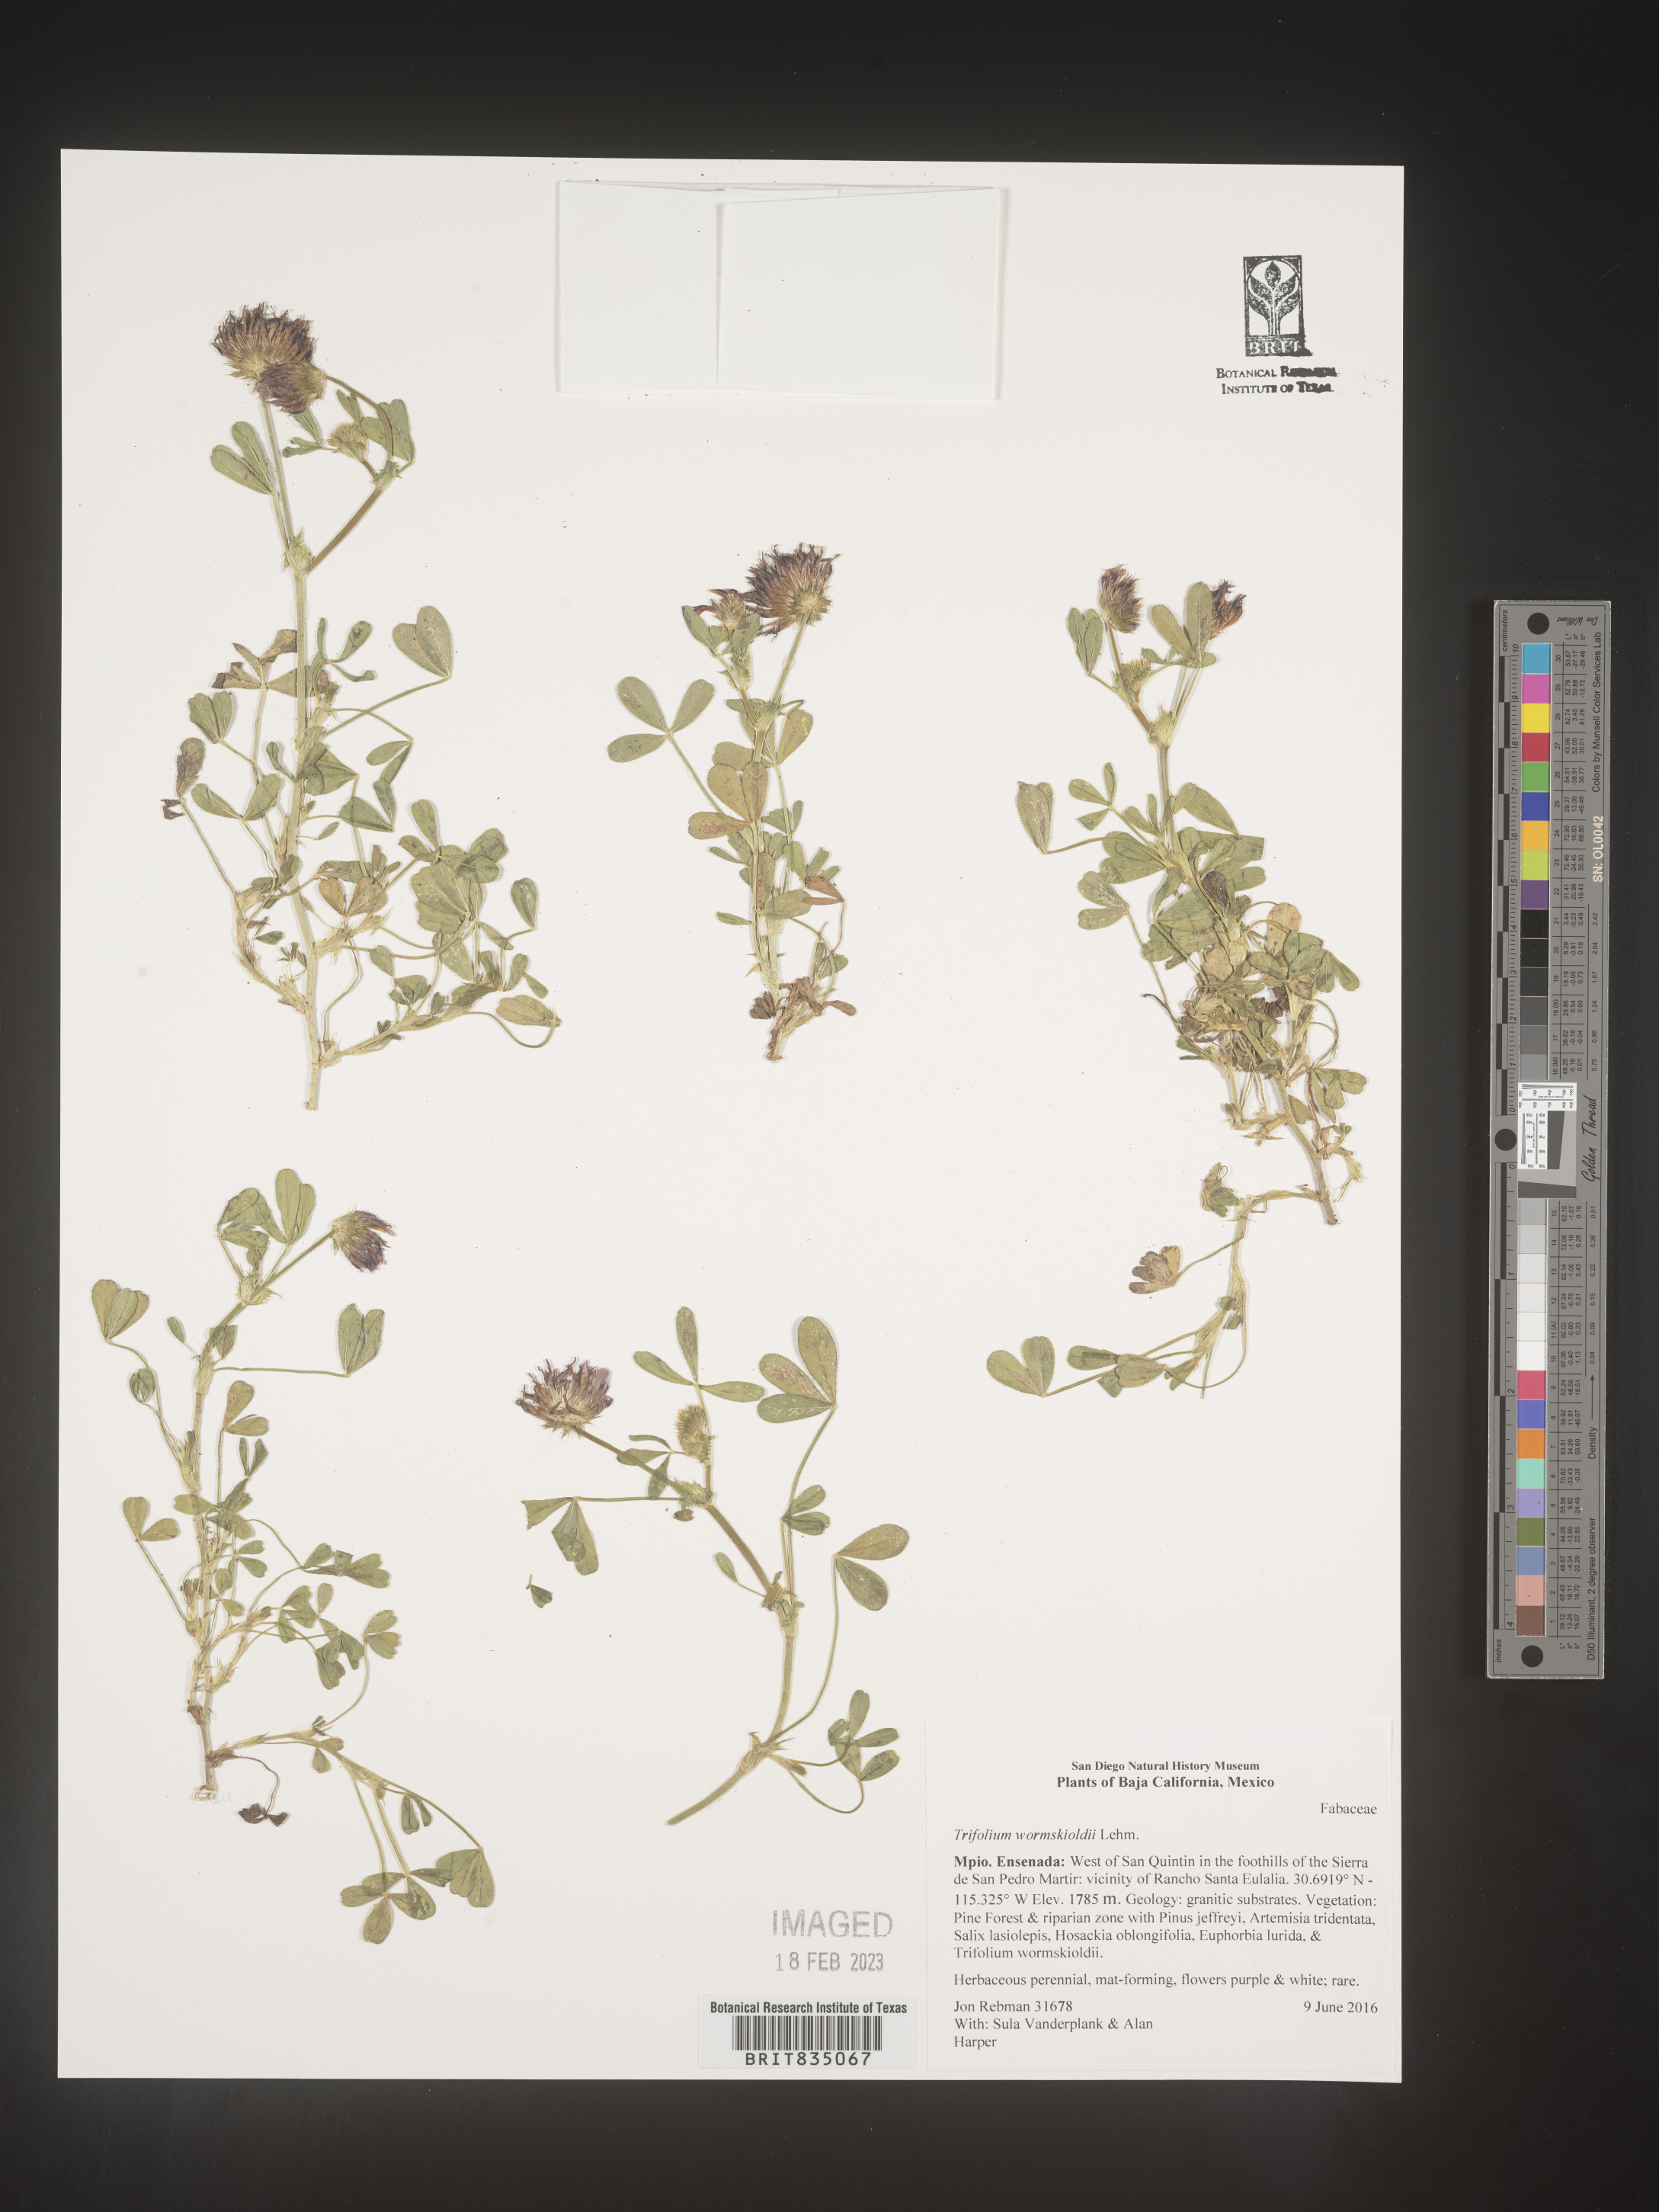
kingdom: Plantae
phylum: Tracheophyta
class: Magnoliopsida
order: Fabales
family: Fabaceae
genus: Trifolium
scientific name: Trifolium
